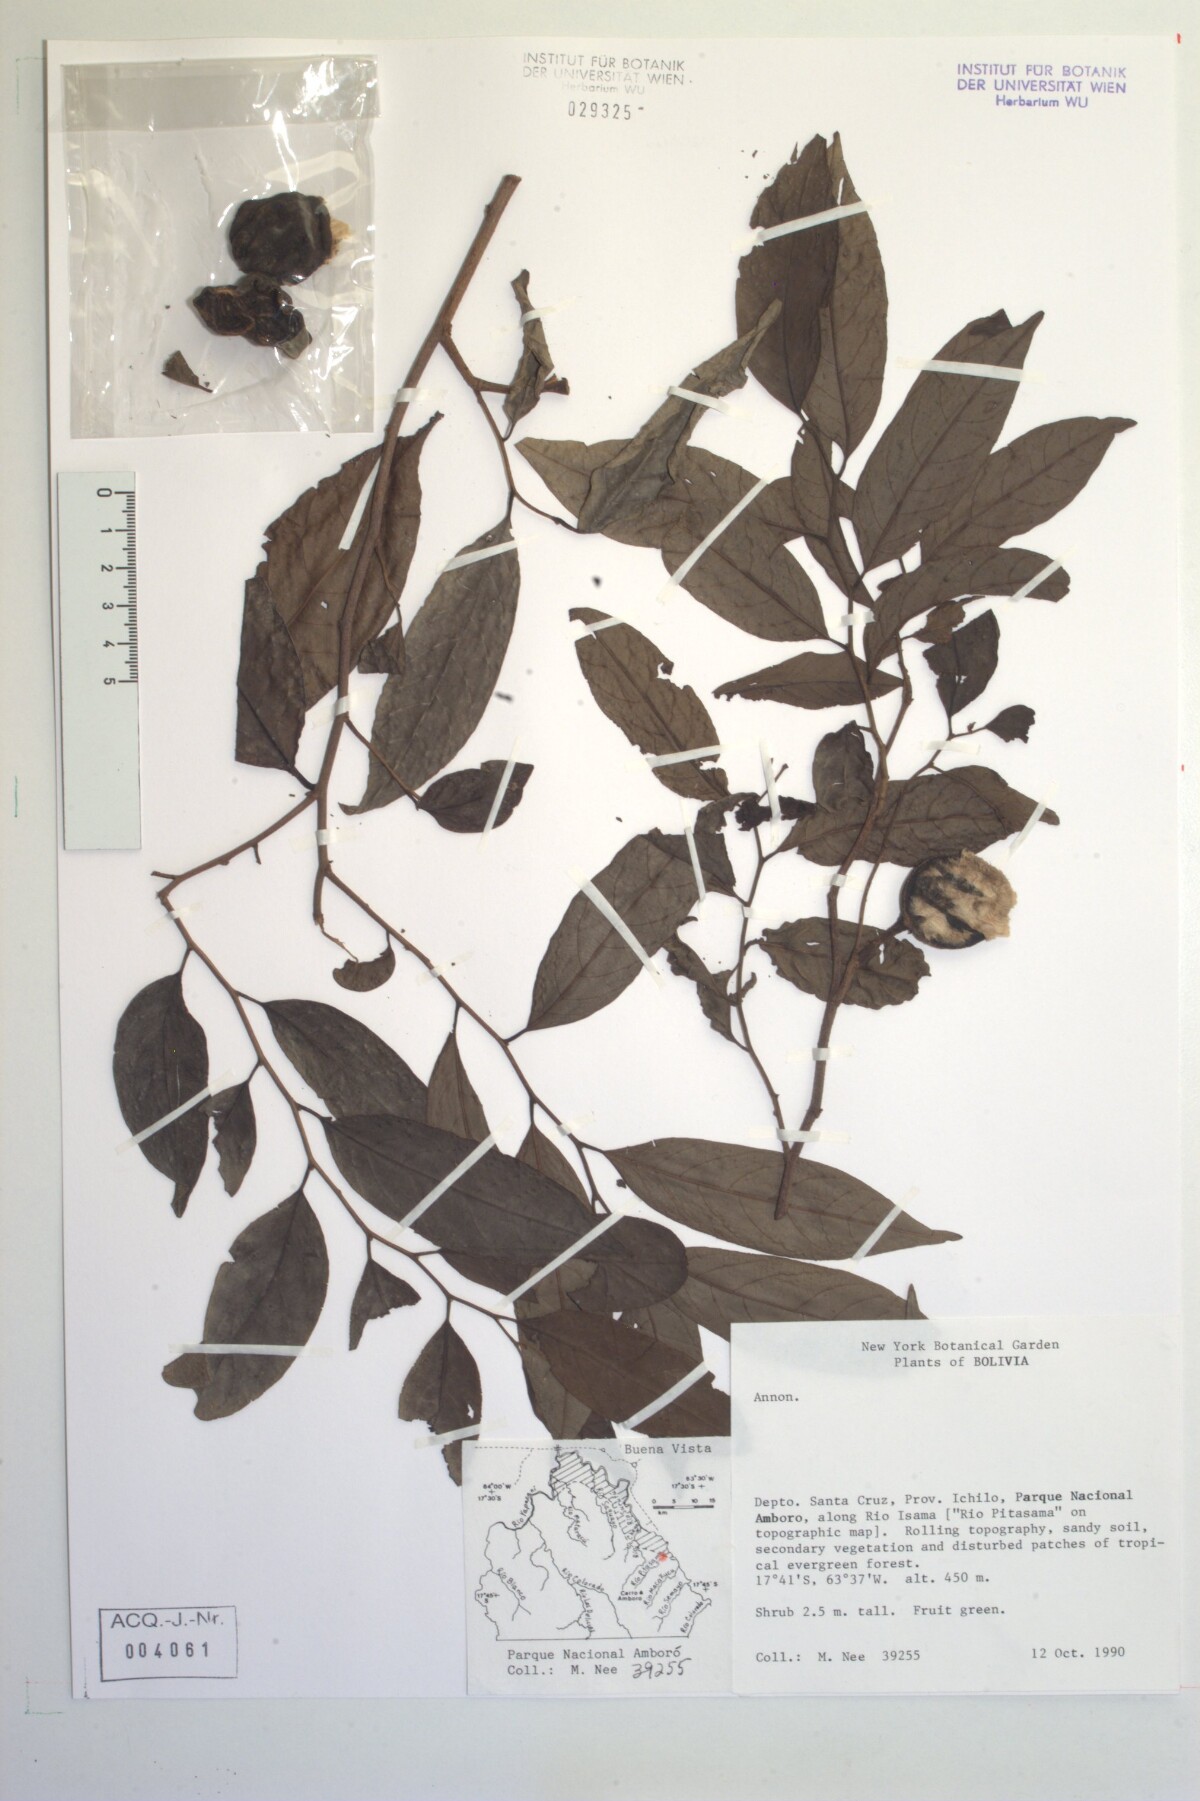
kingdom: Plantae
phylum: Tracheophyta
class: Magnoliopsida
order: Magnoliales
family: Annonaceae
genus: Annona
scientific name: Annona
